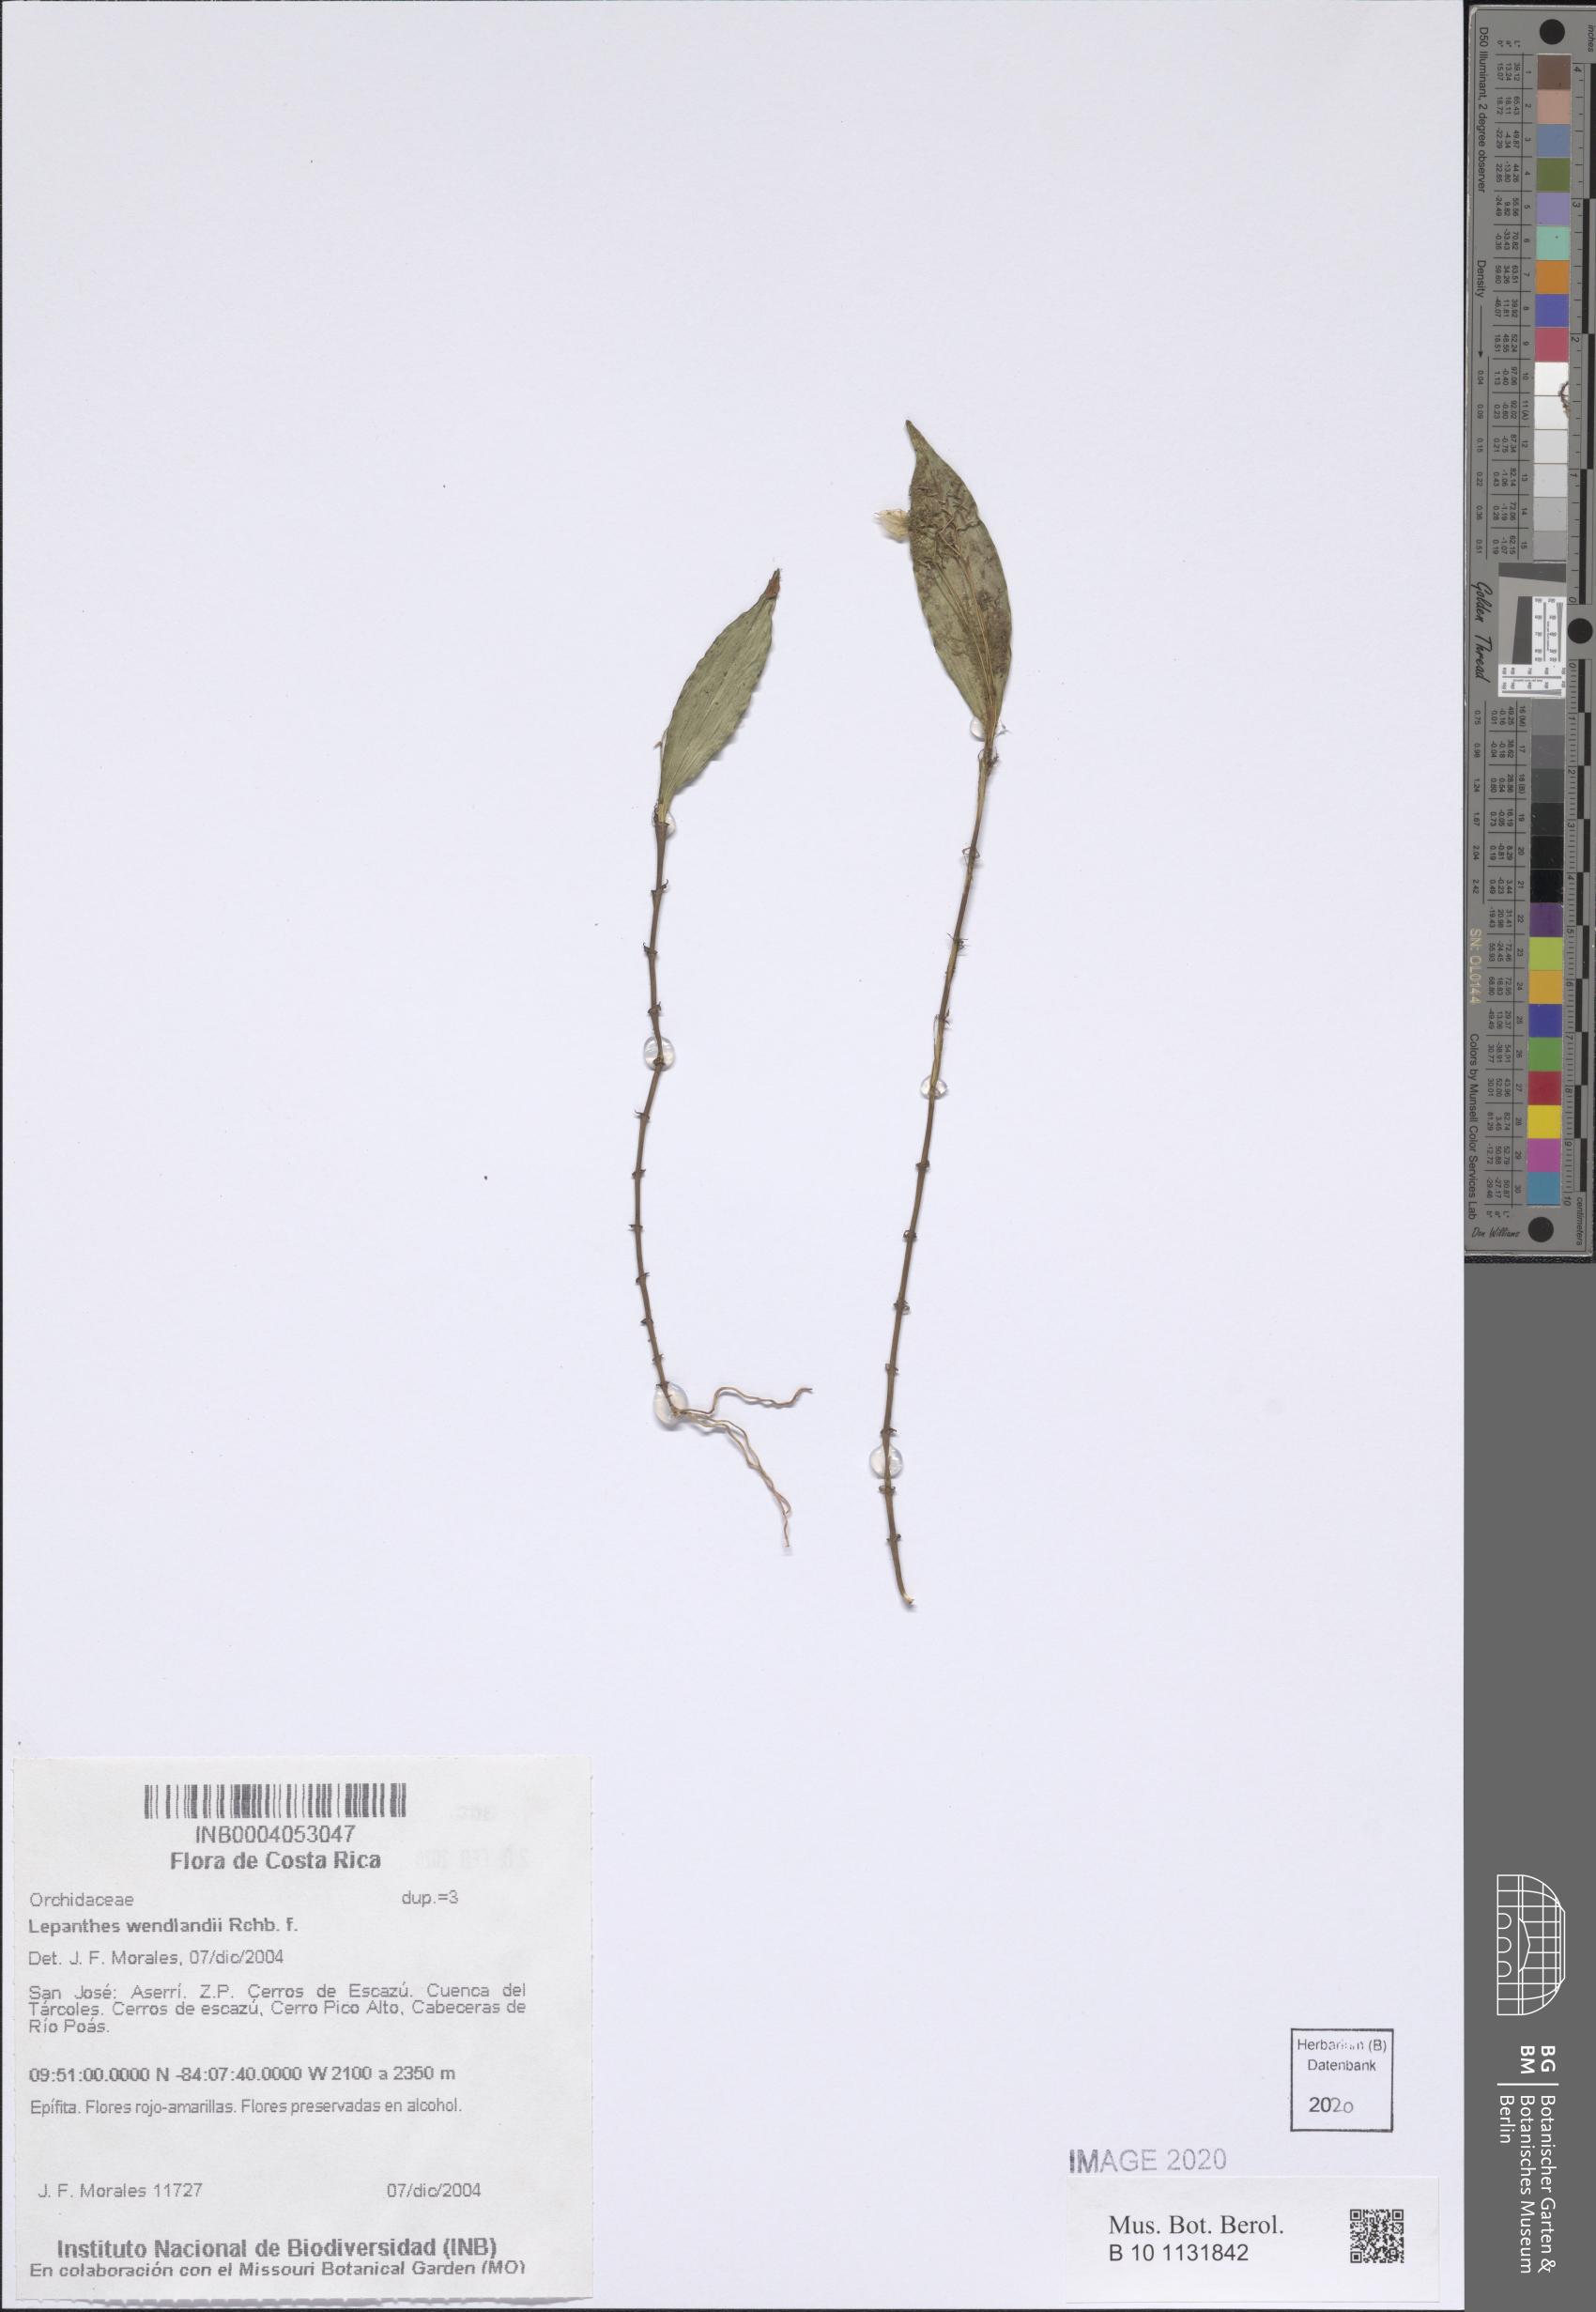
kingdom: Plantae
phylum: Tracheophyta
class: Liliopsida
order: Asparagales
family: Orchidaceae
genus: Lepanthes
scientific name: Lepanthes wendlandii
